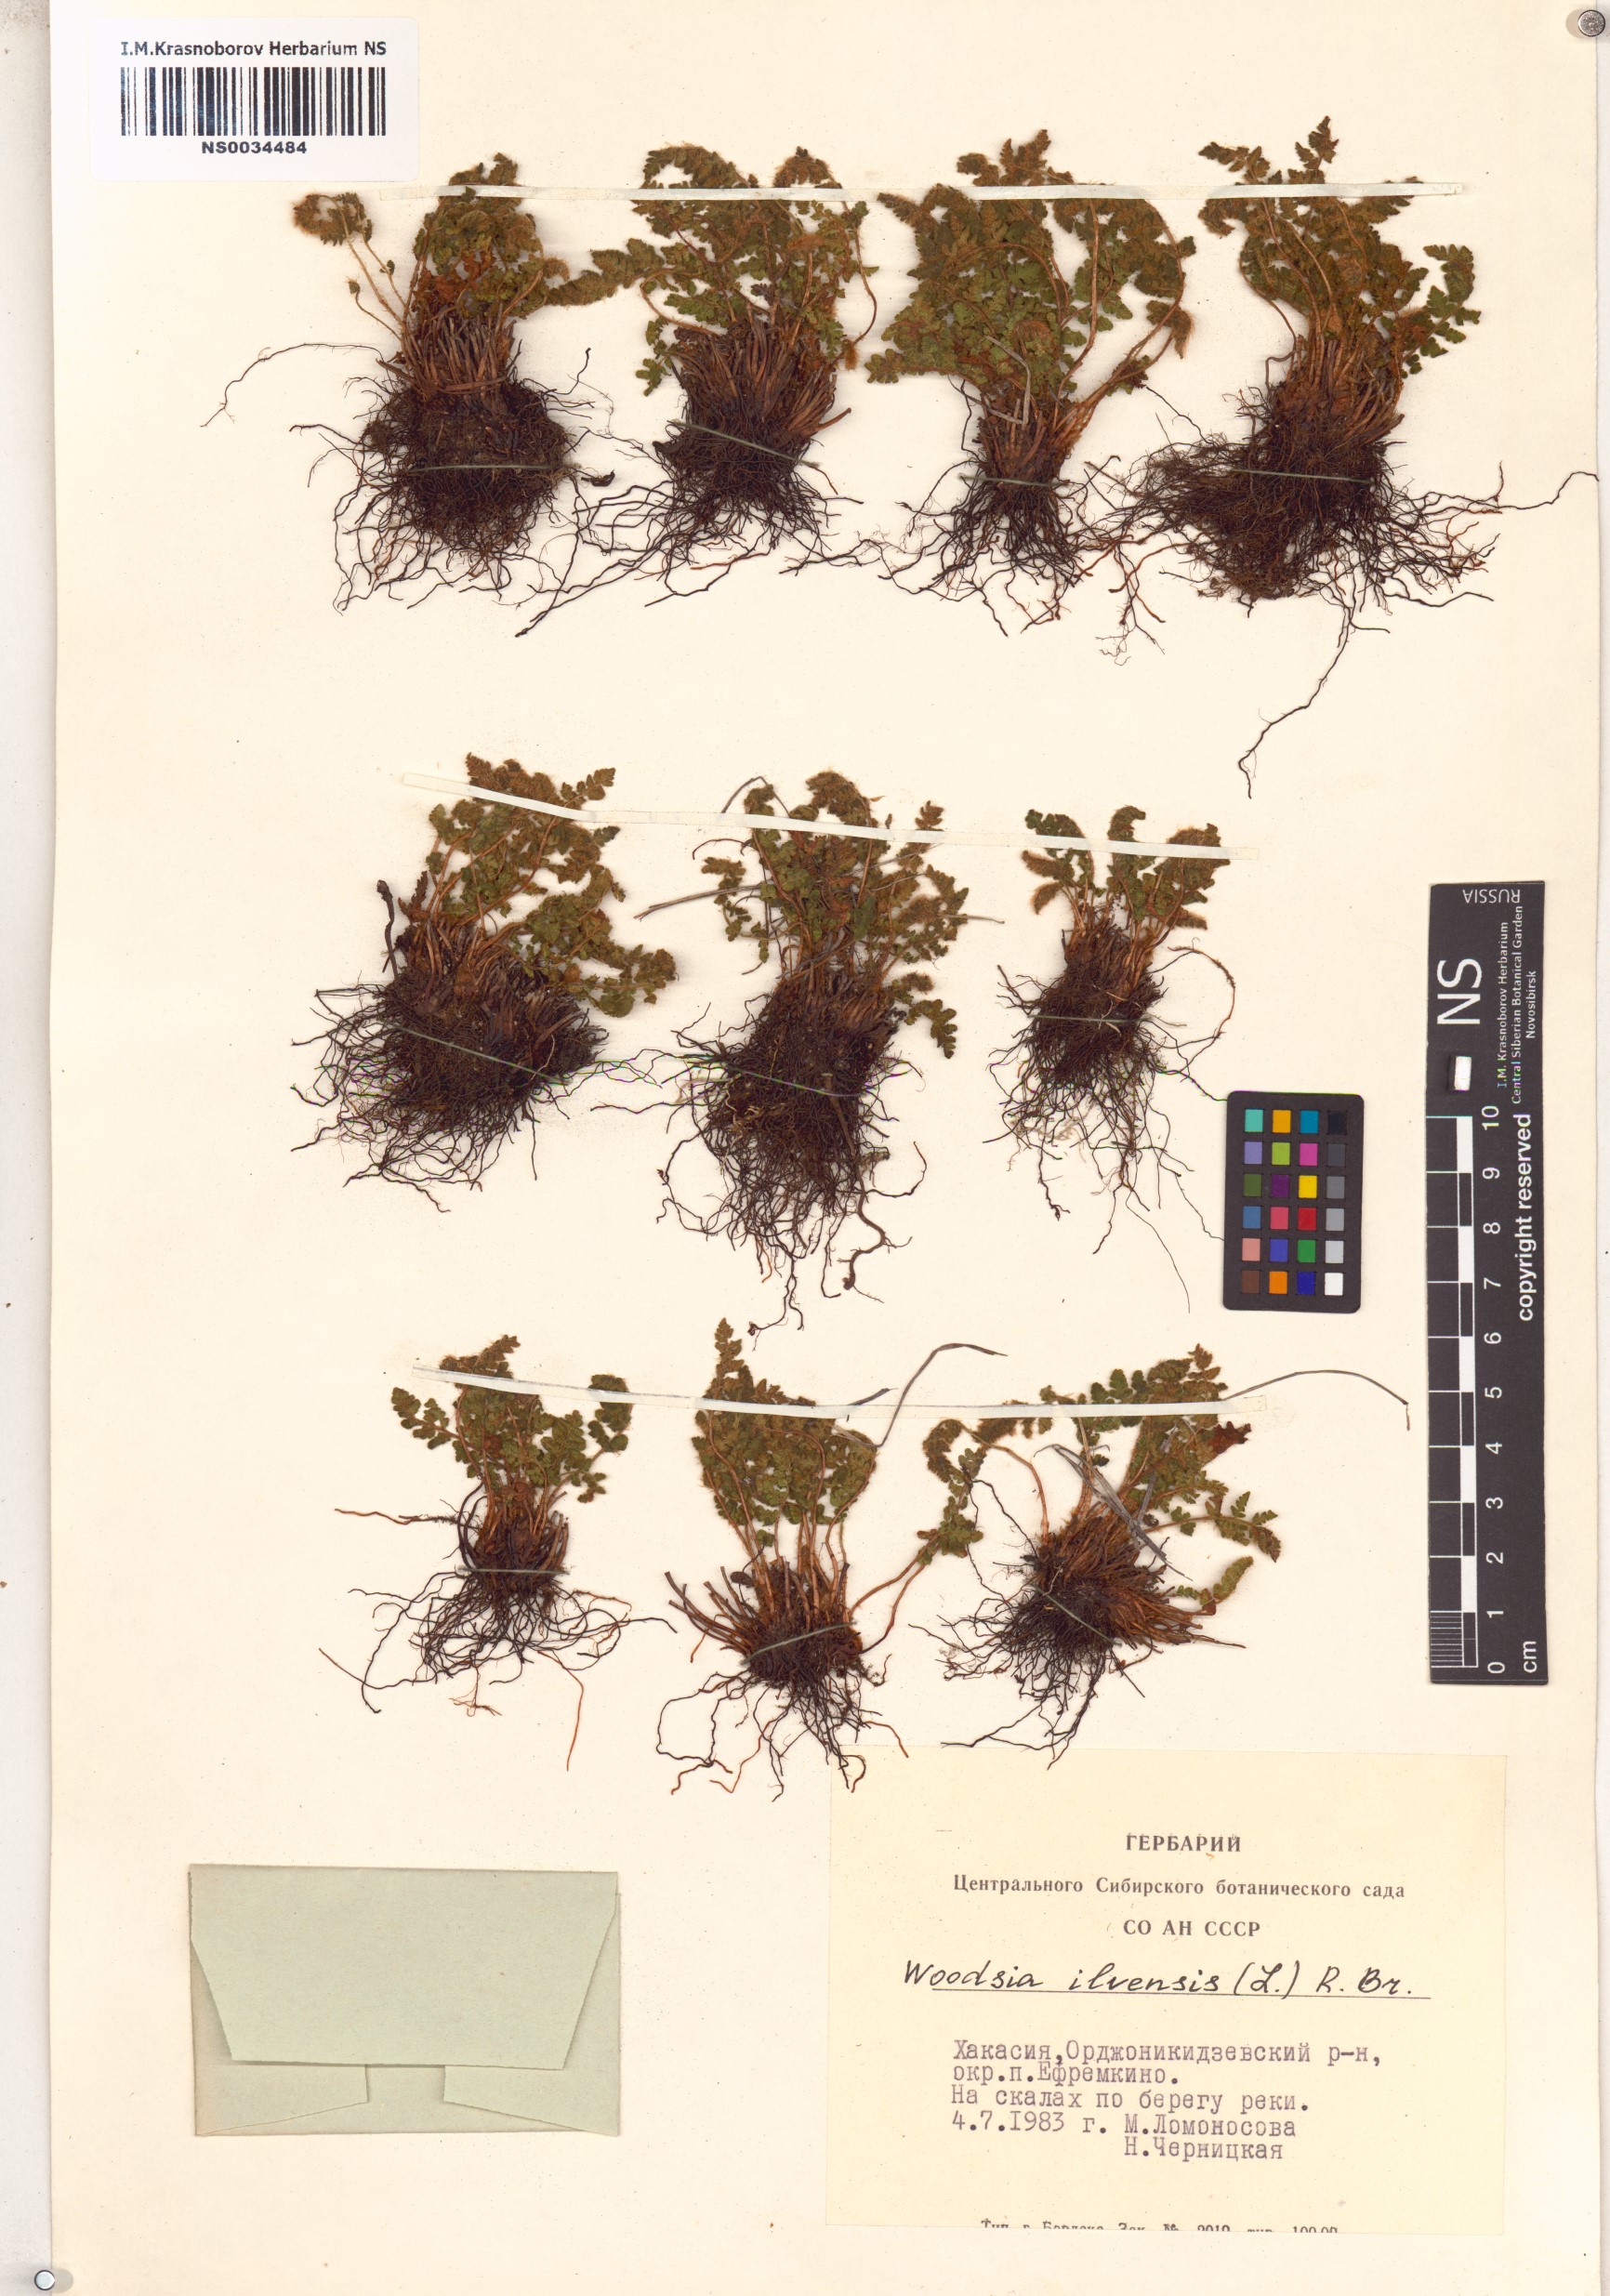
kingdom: Plantae
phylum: Tracheophyta
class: Polypodiopsida
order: Polypodiales
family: Woodsiaceae
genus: Woodsia
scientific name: Woodsia ilvensis
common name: Fragrant woodsia
